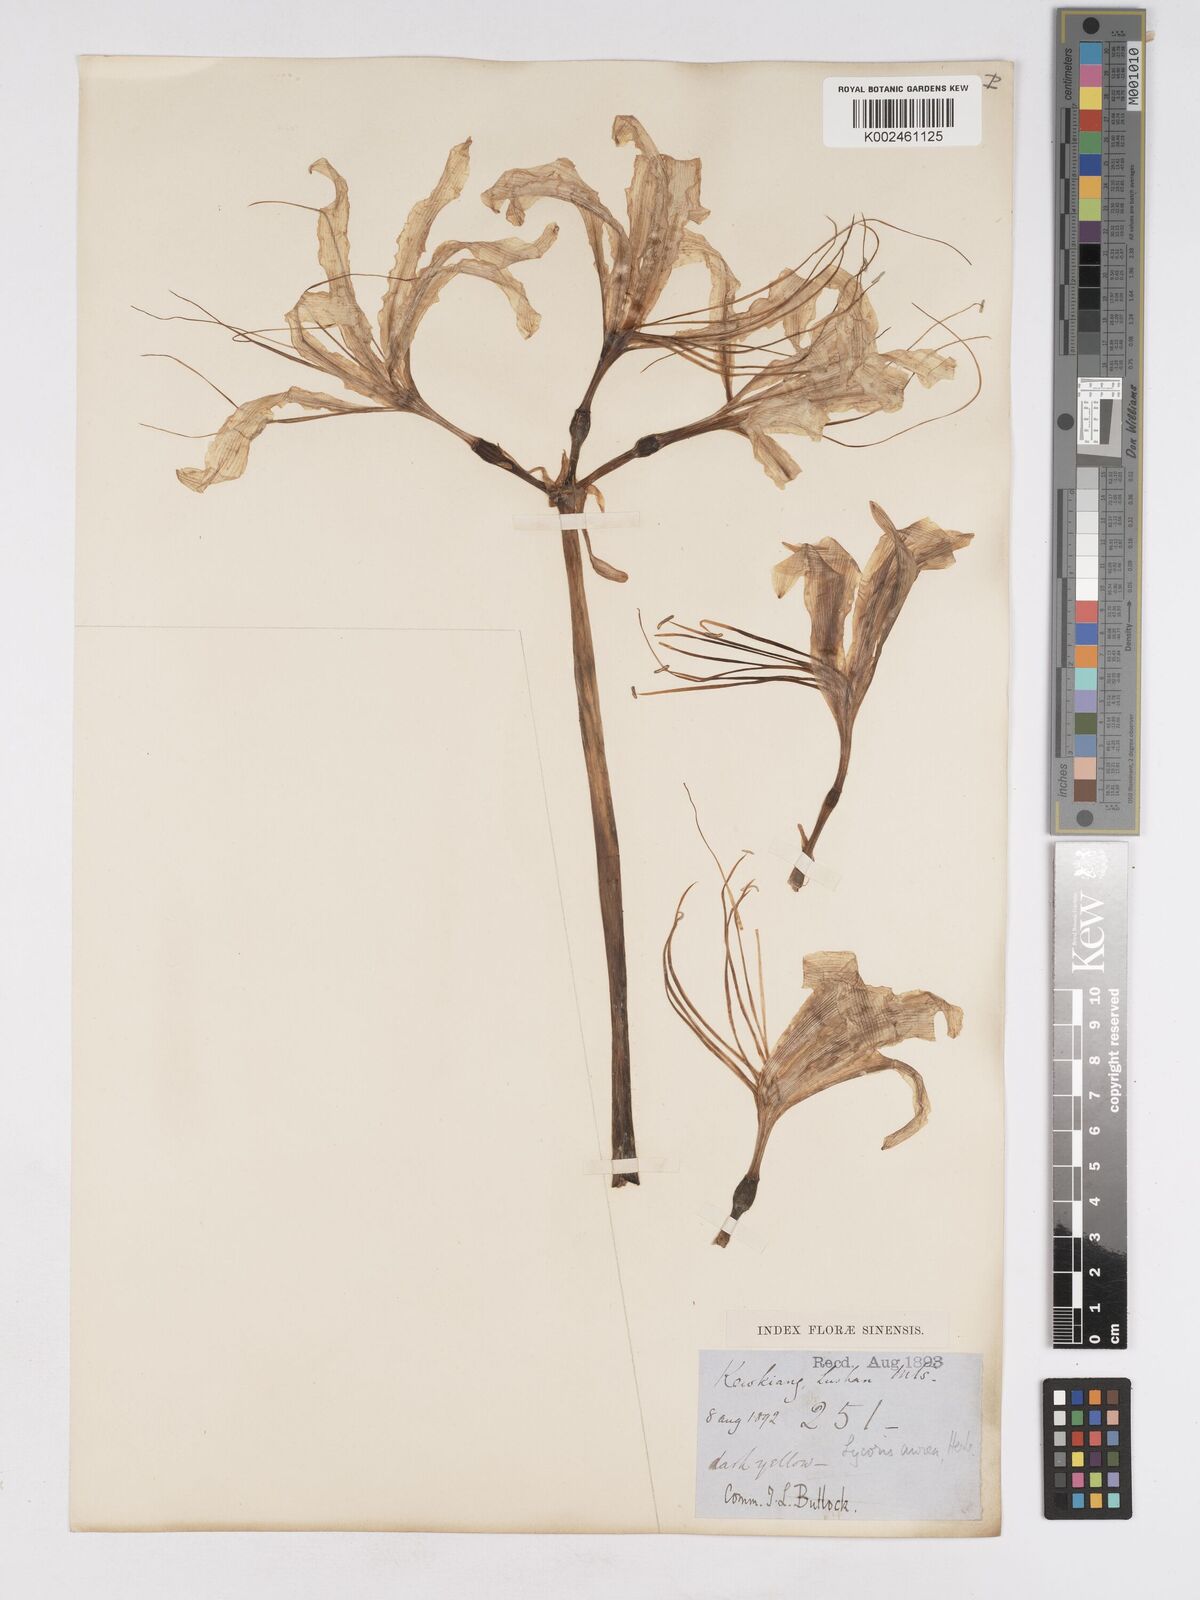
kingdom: Plantae
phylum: Tracheophyta
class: Liliopsida
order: Asparagales
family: Amaryllidaceae
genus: Lycoris
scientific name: Lycoris
